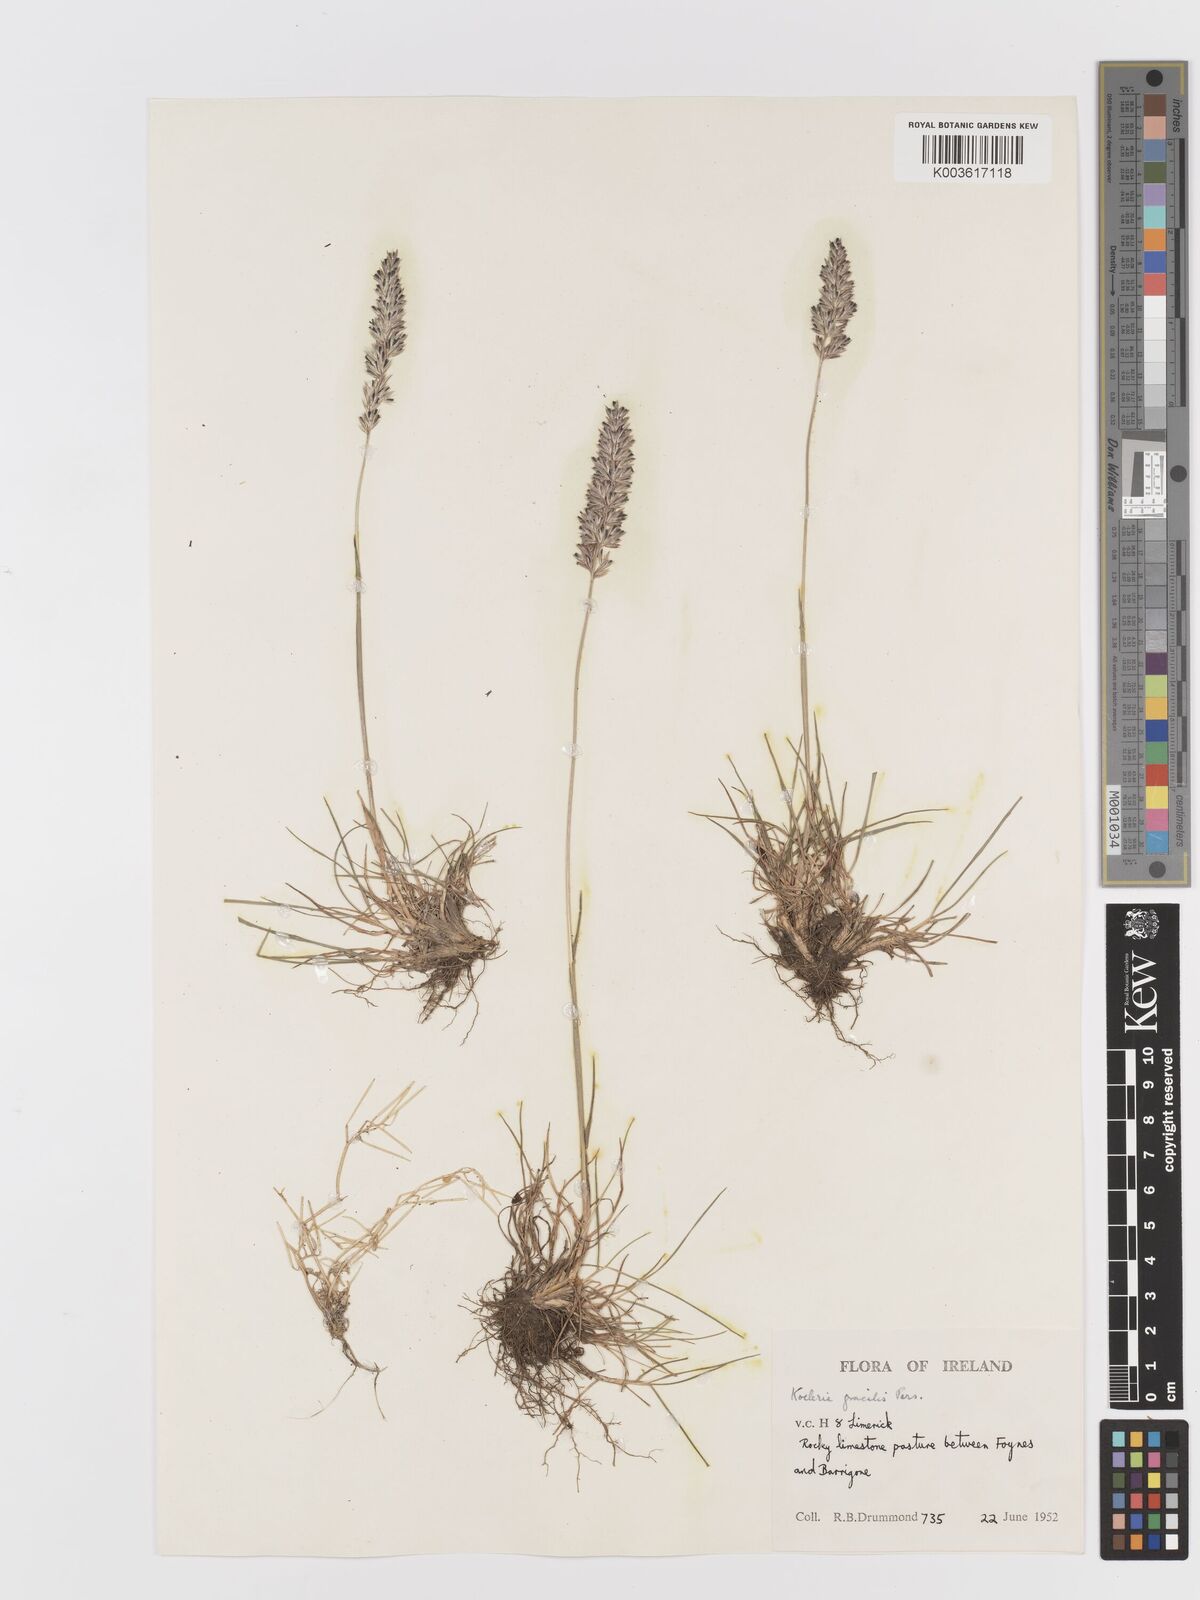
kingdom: Plantae
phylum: Tracheophyta
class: Liliopsida
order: Poales
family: Poaceae
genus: Koeleria
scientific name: Koeleria macrantha
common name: Crested hair-grass
